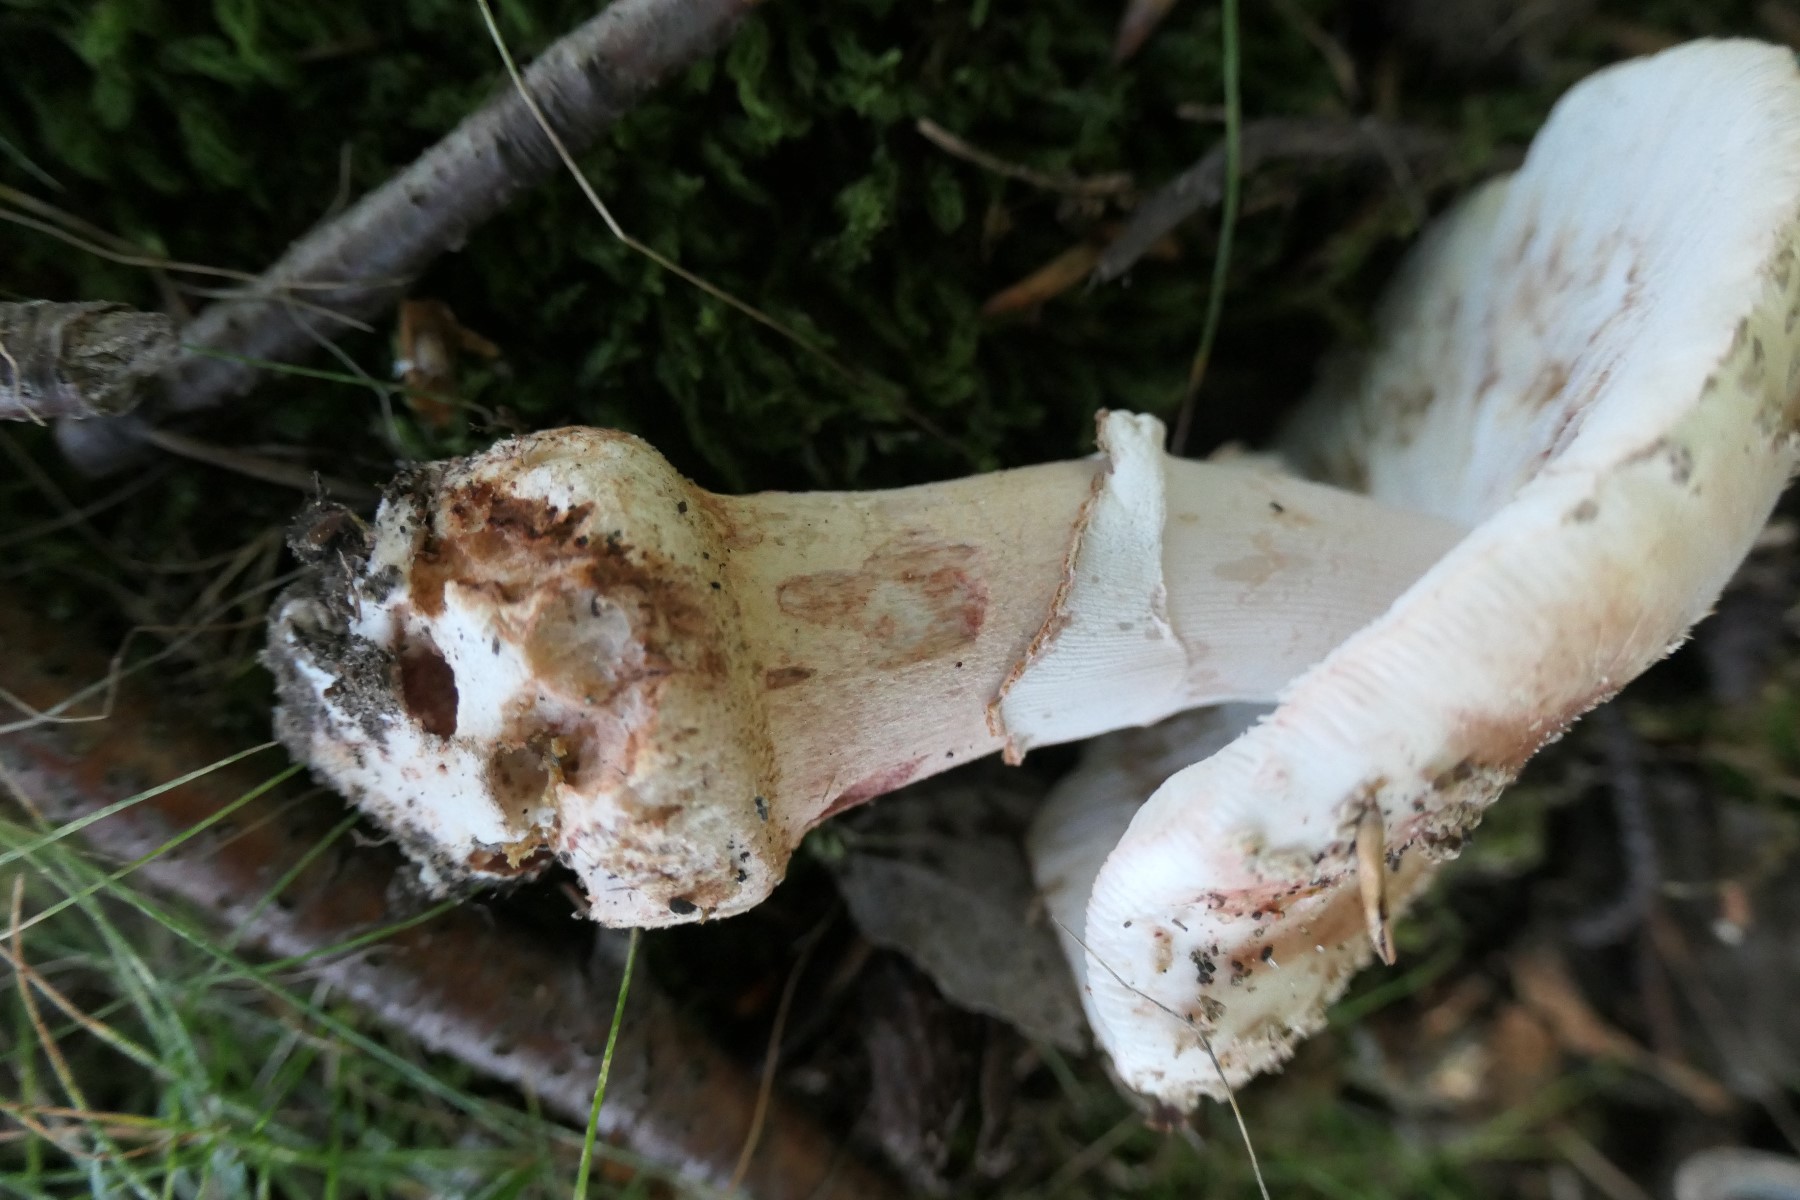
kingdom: Fungi
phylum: Basidiomycota
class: Agaricomycetes
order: Agaricales
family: Amanitaceae
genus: Amanita
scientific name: Amanita rubescens
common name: rødmende fluesvamp
